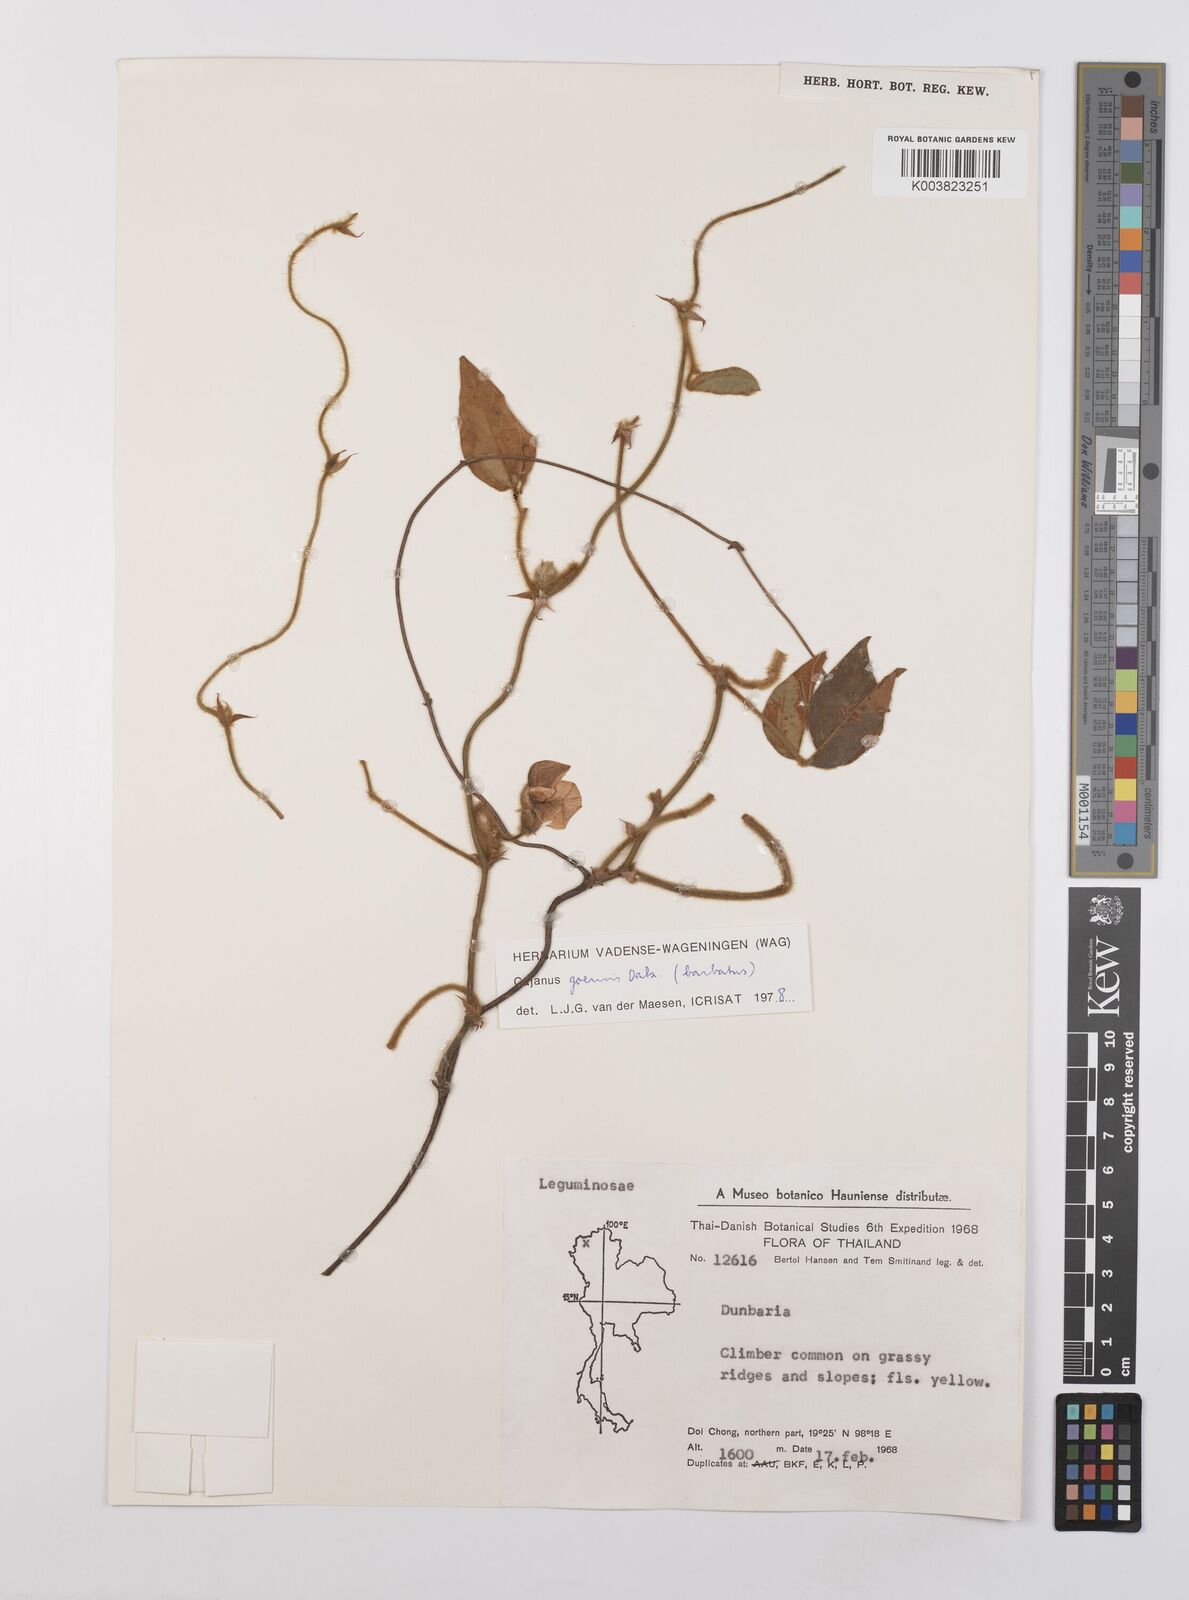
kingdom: Plantae
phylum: Tracheophyta
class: Magnoliopsida
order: Fabales
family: Fabaceae
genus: Cajanus
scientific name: Cajanus goensis
